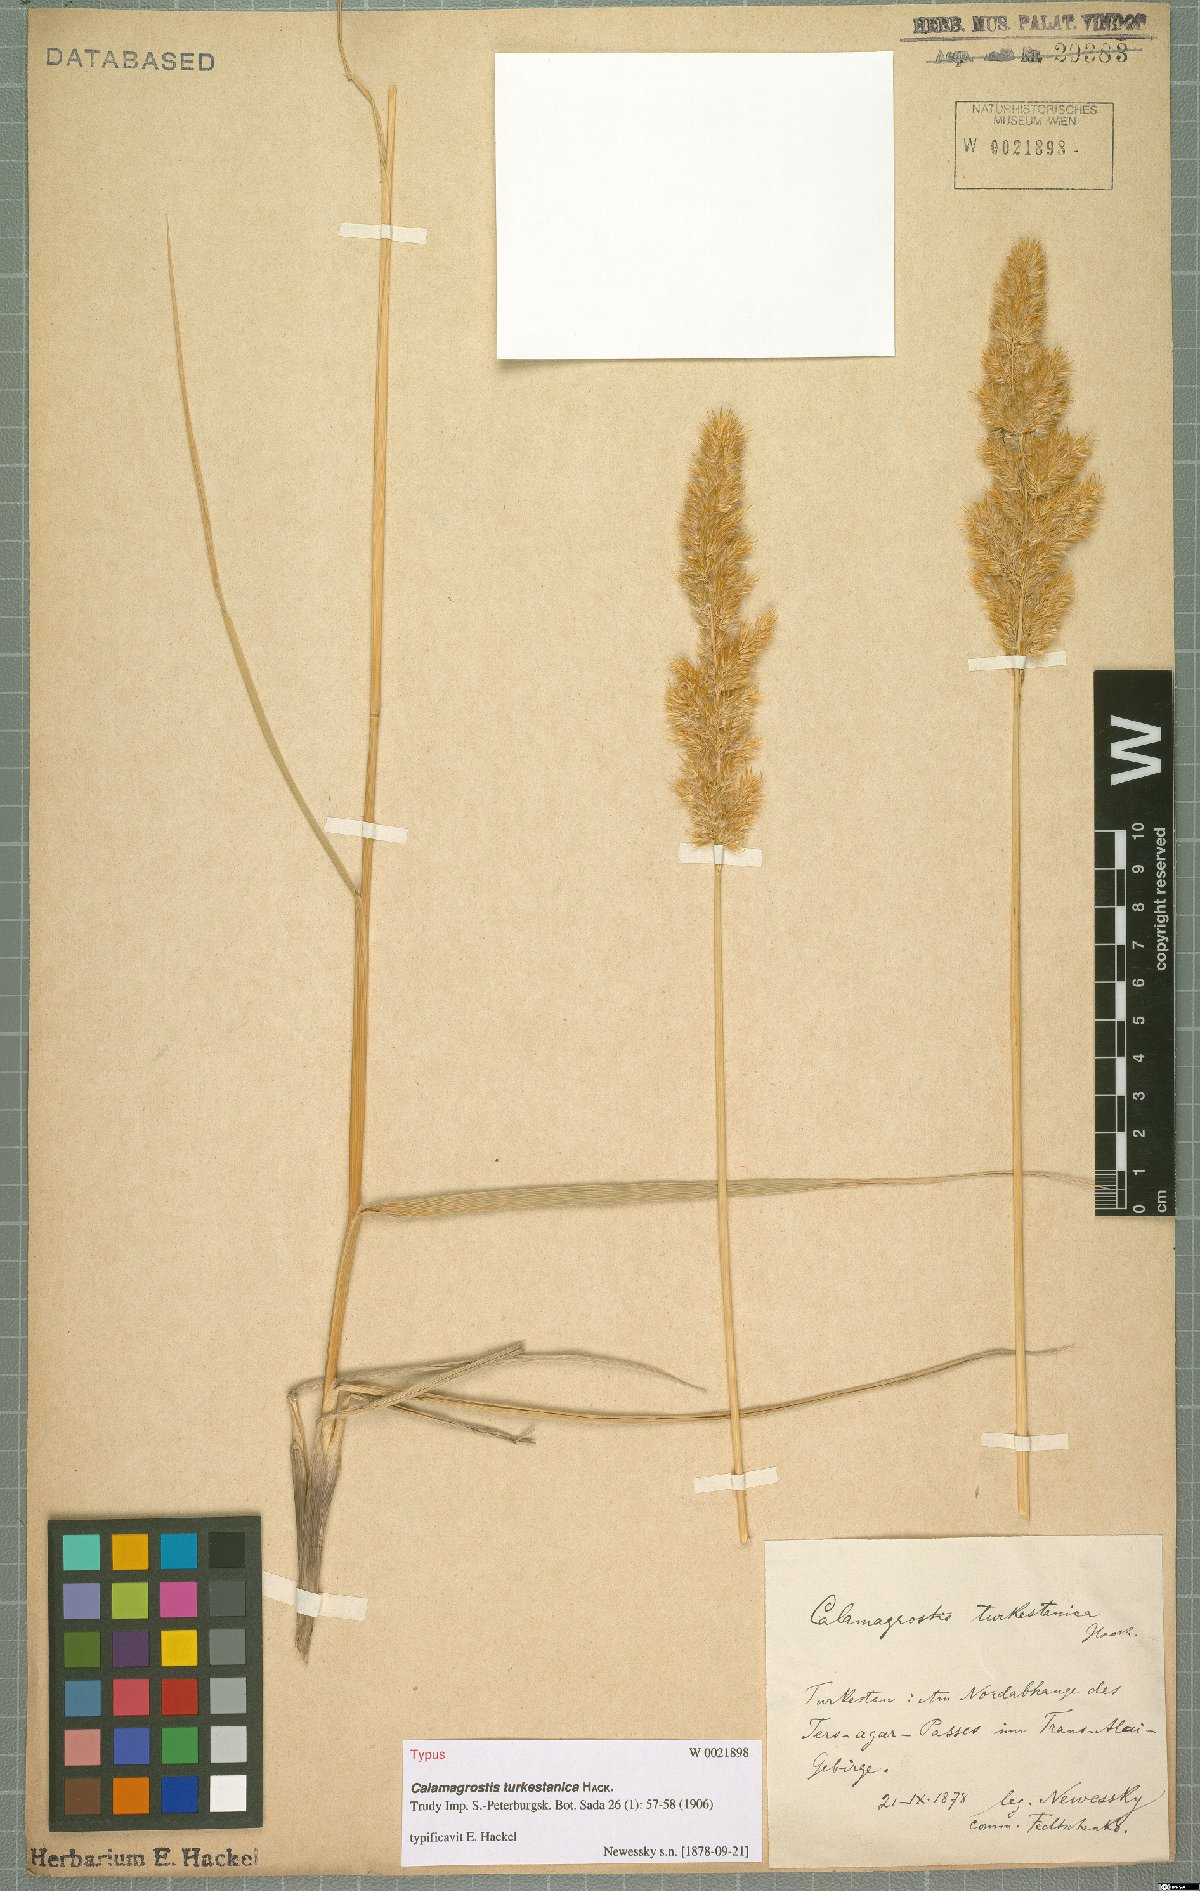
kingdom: Plantae
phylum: Tracheophyta
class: Liliopsida
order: Poales
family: Poaceae
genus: Calamagrostis
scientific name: Calamagrostis turkestanica
